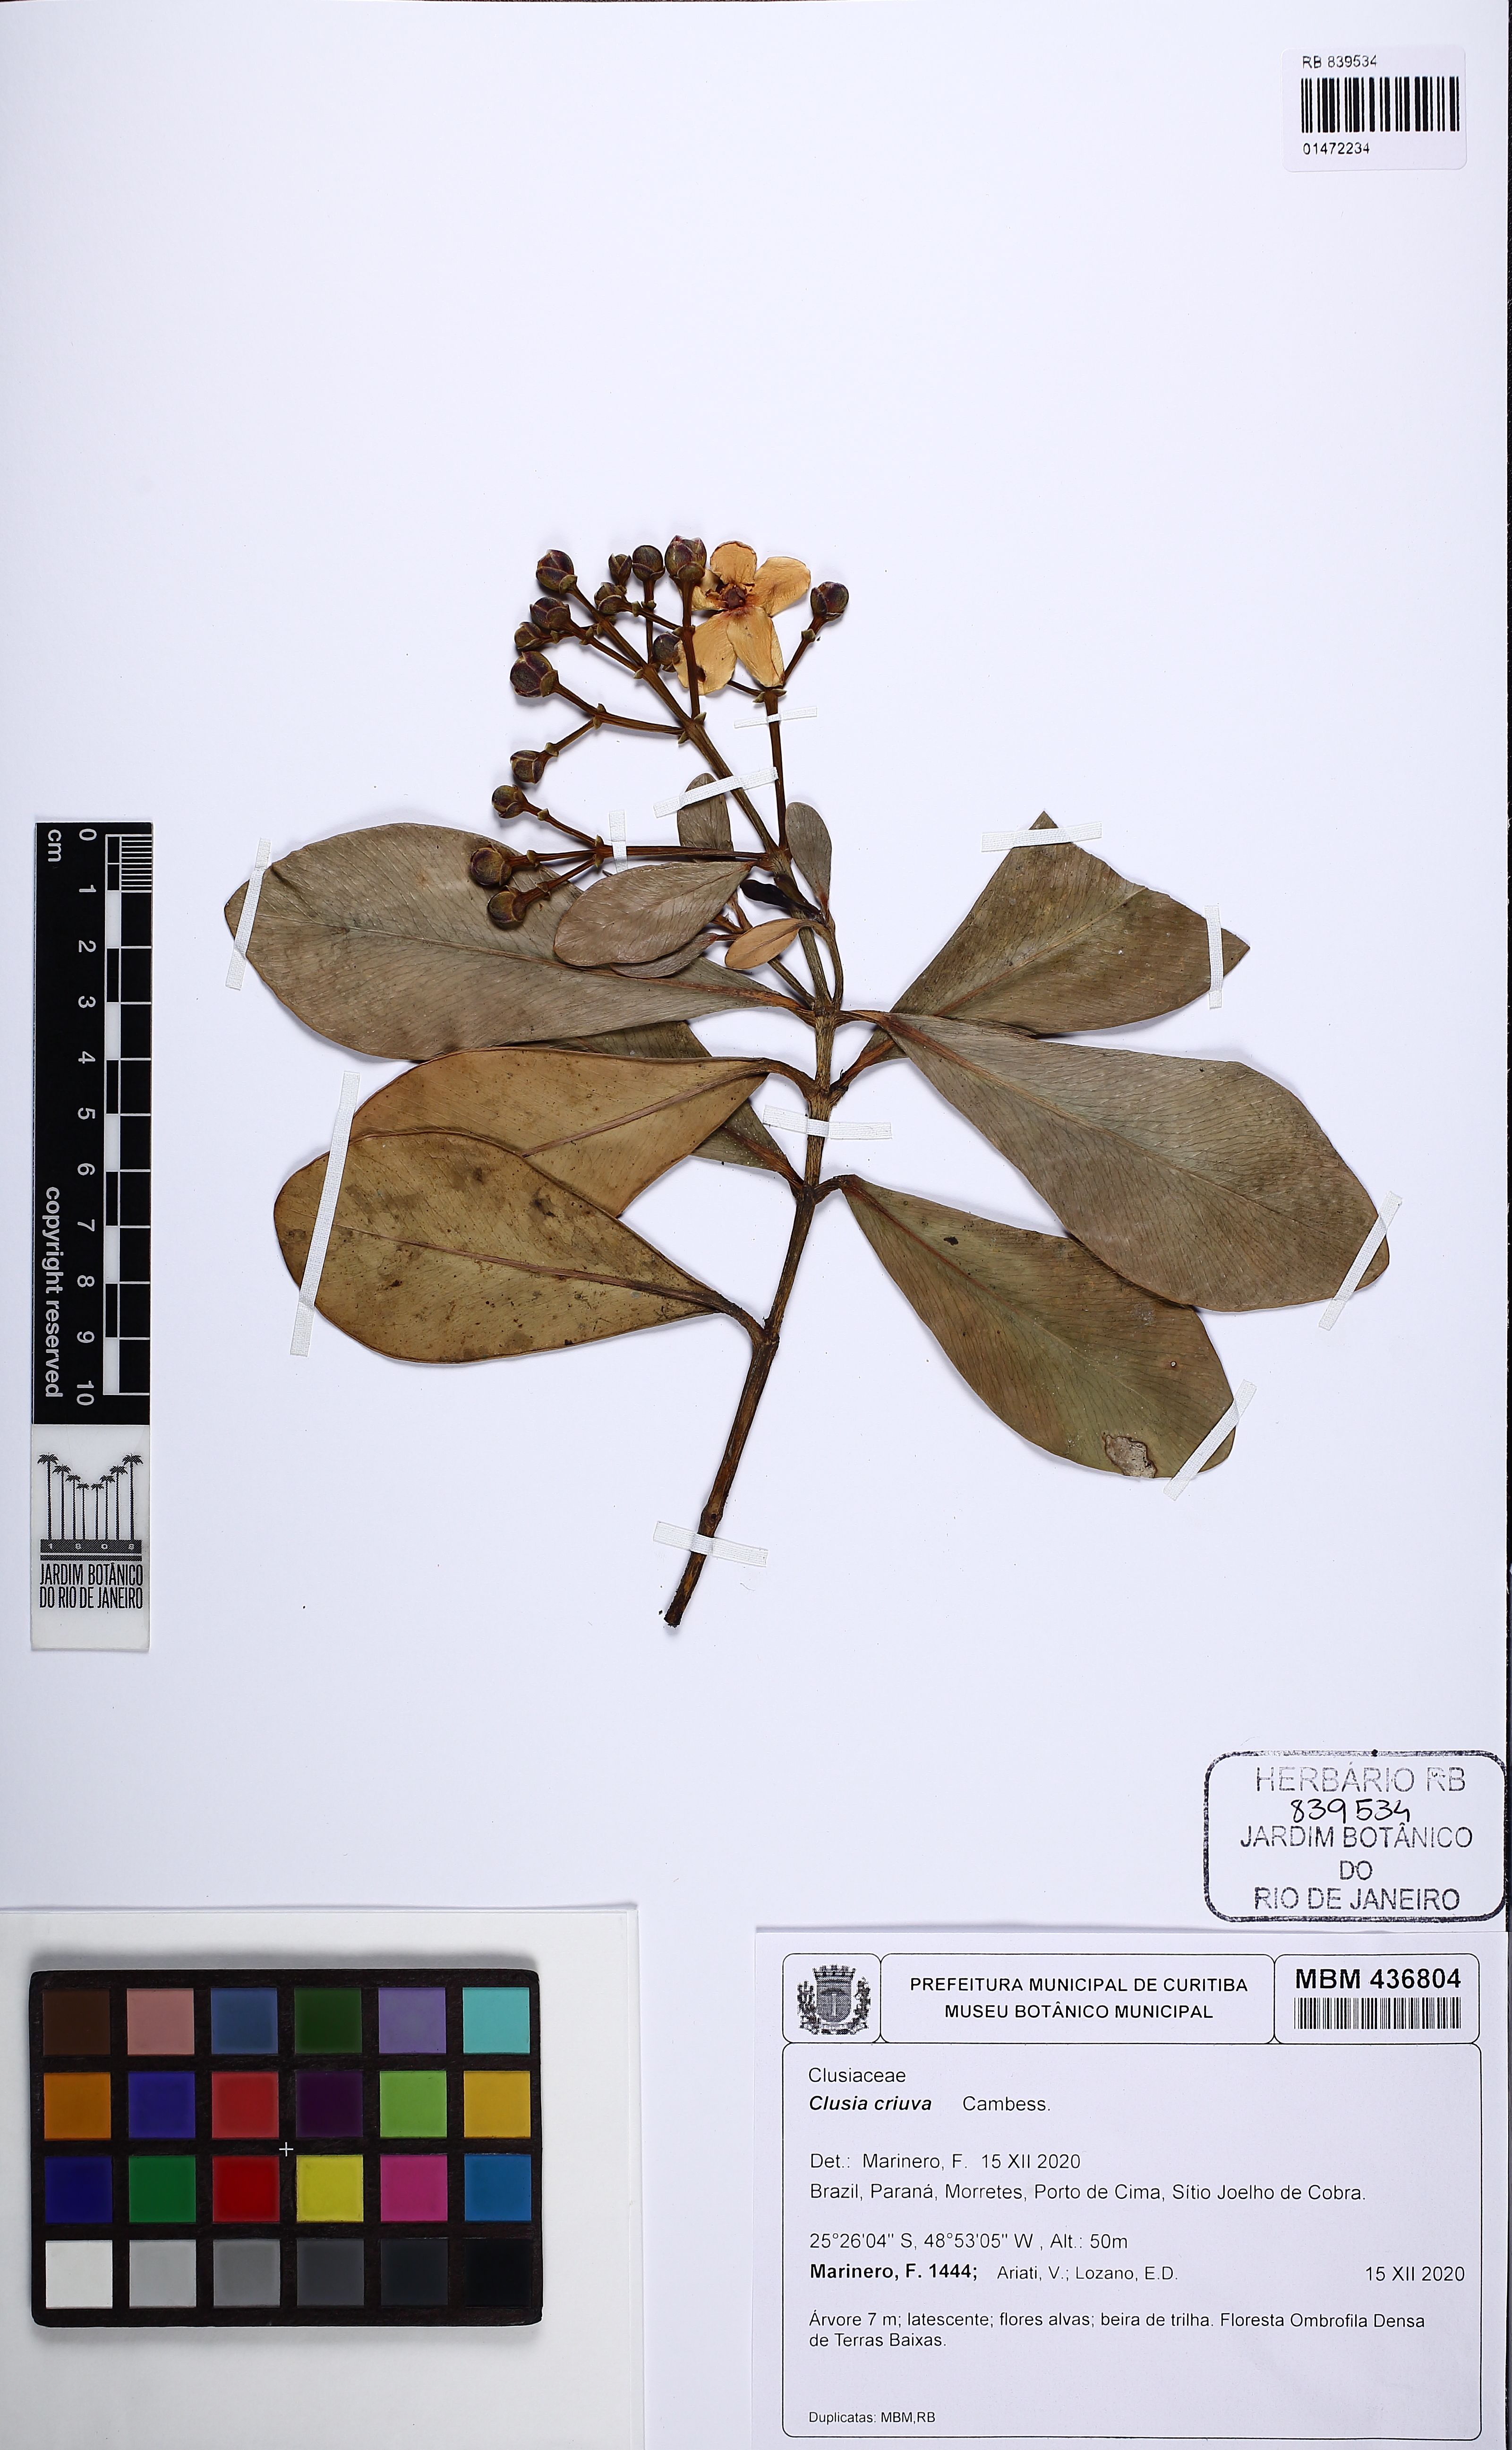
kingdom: Plantae
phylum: Tracheophyta
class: Magnoliopsida
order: Malpighiales
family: Clusiaceae
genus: Clusia
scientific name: Clusia criuva
